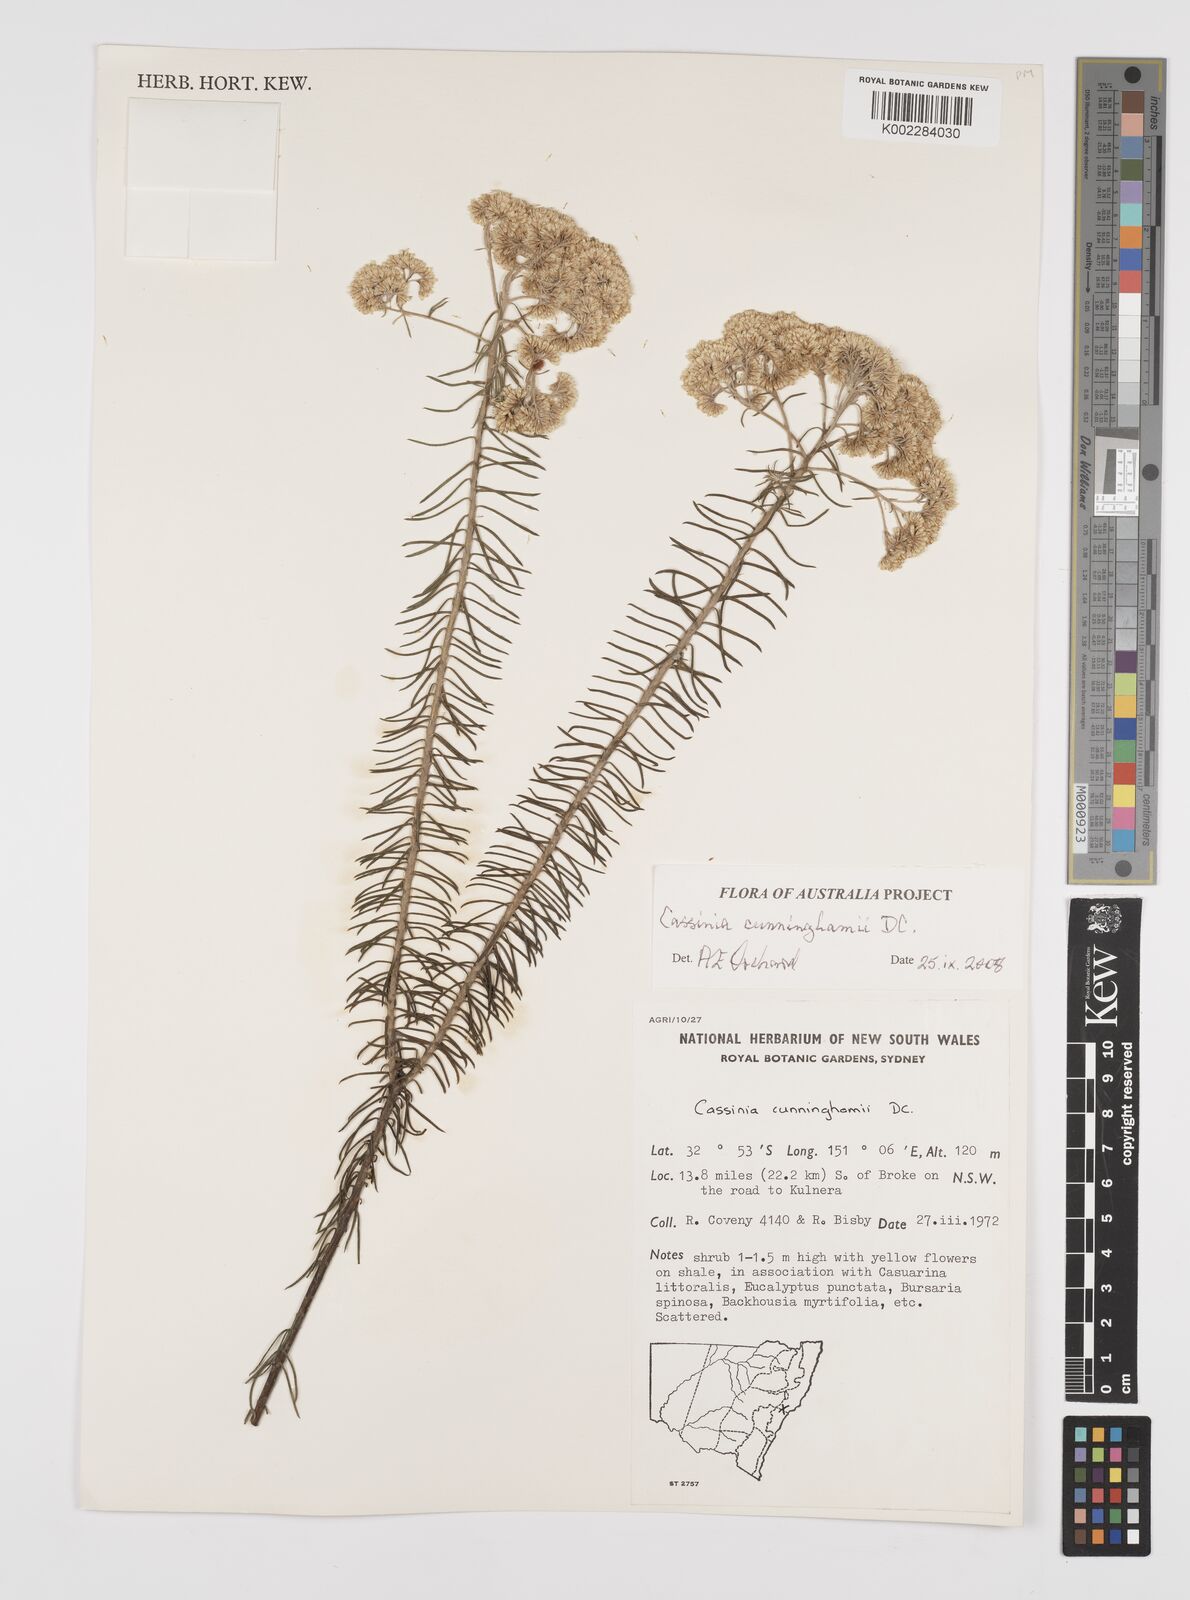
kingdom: Plantae
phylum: Tracheophyta
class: Magnoliopsida
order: Asterales
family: Asteraceae
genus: Cassinia
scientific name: Cassinia cunninghamii
